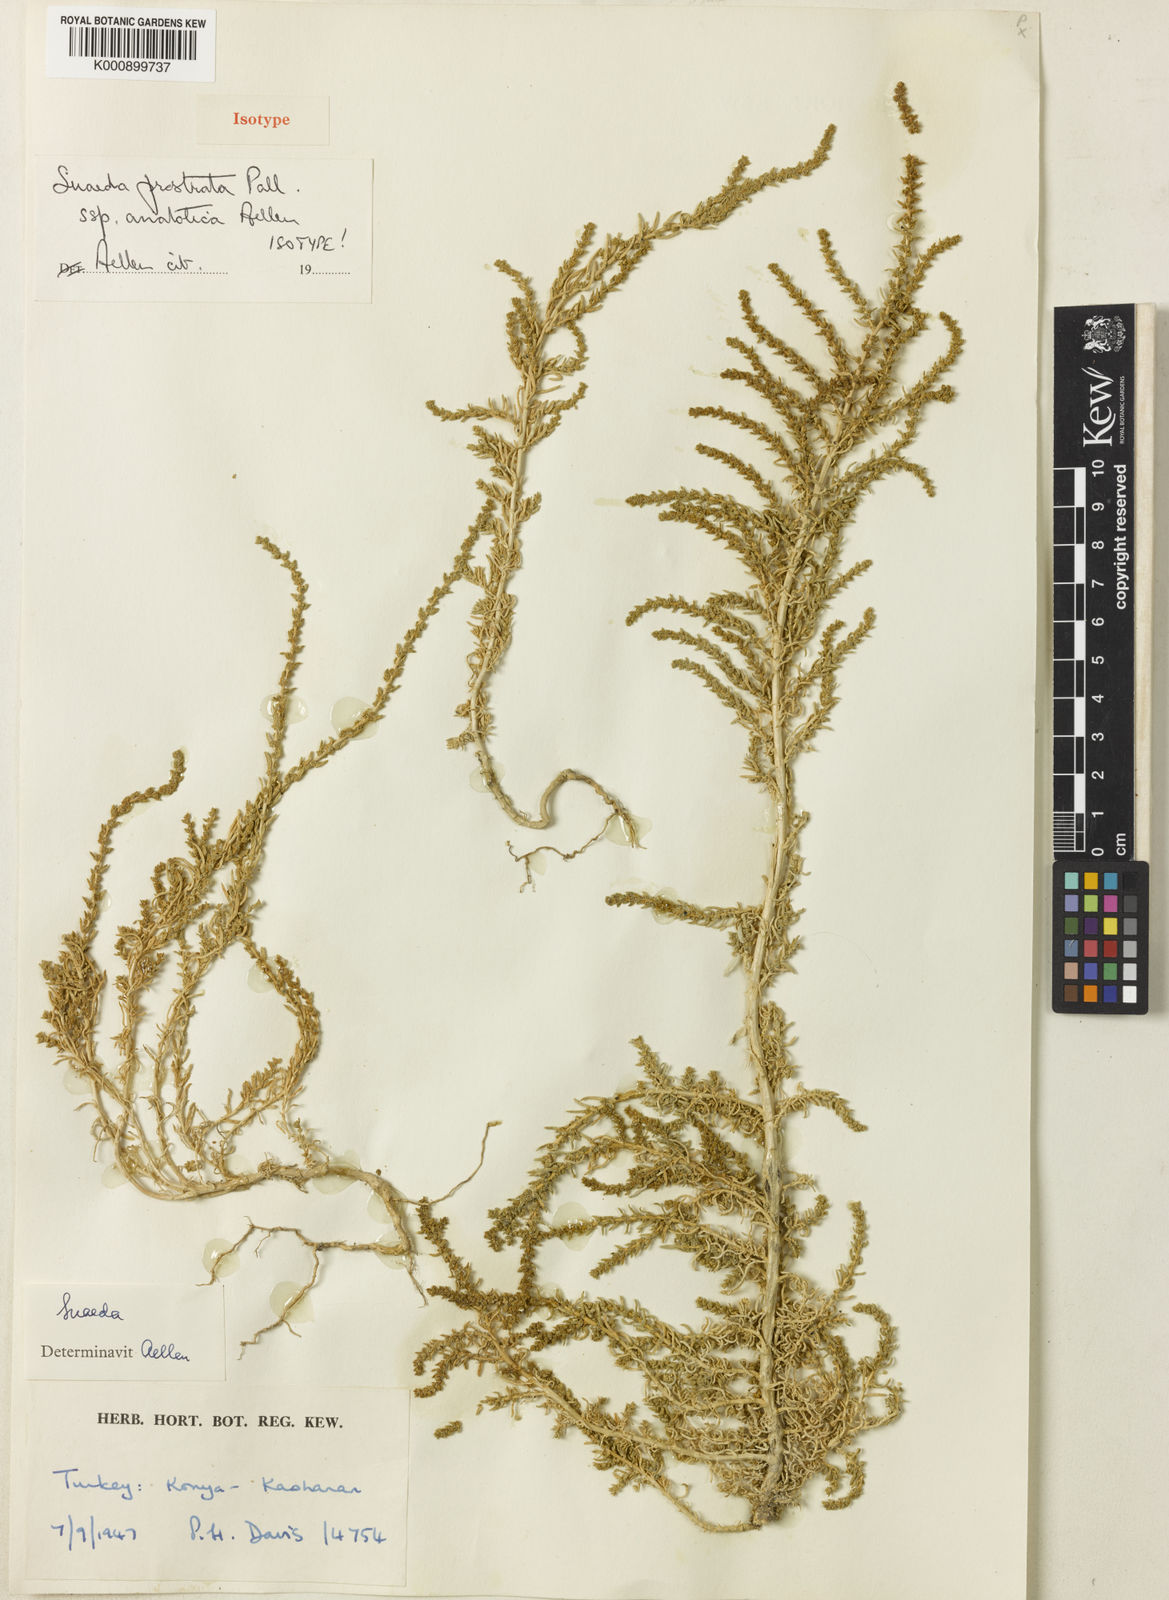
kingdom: Plantae
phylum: Tracheophyta
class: Magnoliopsida
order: Caryophyllales
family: Amaranthaceae
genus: Suaeda
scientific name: Suaeda prostrata
